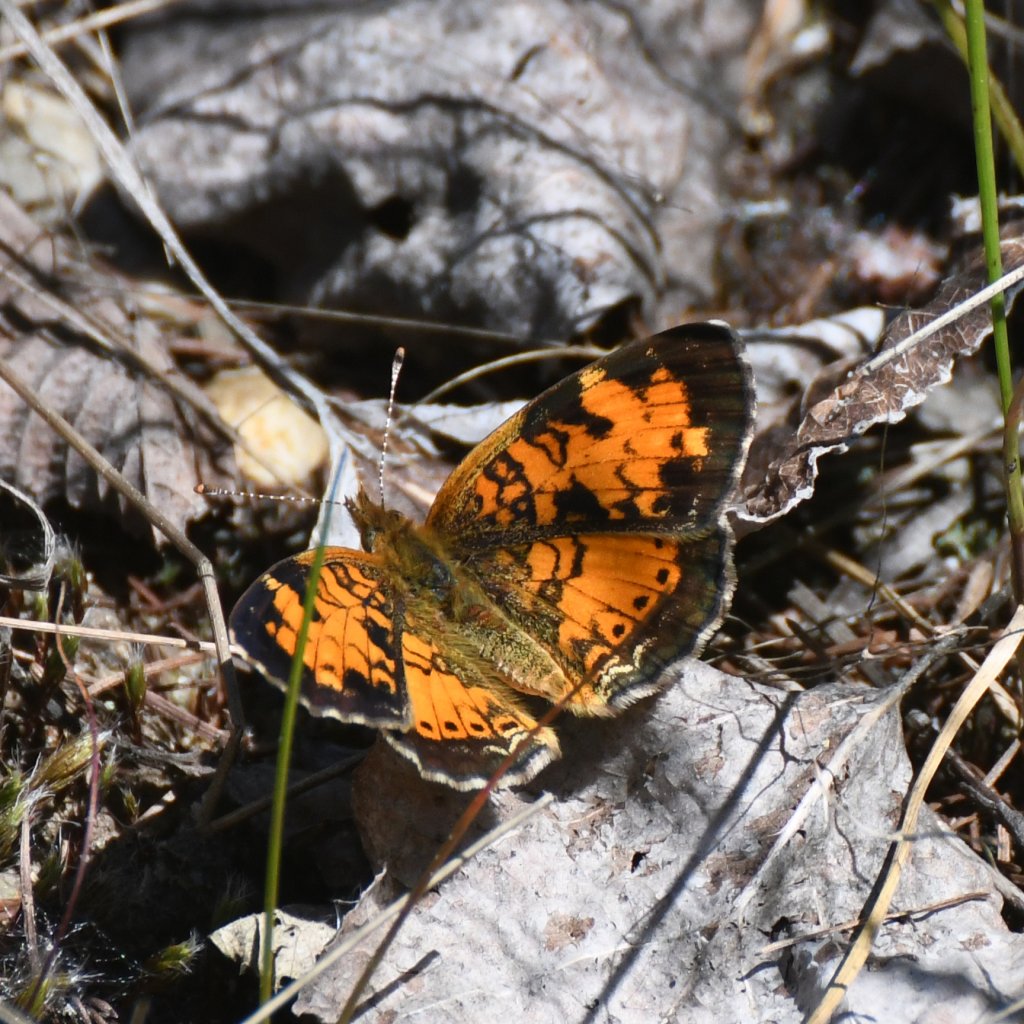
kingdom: Animalia
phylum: Arthropoda
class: Insecta
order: Lepidoptera
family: Nymphalidae
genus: Phyciodes
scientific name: Phyciodes tharos
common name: Northern Crescent
